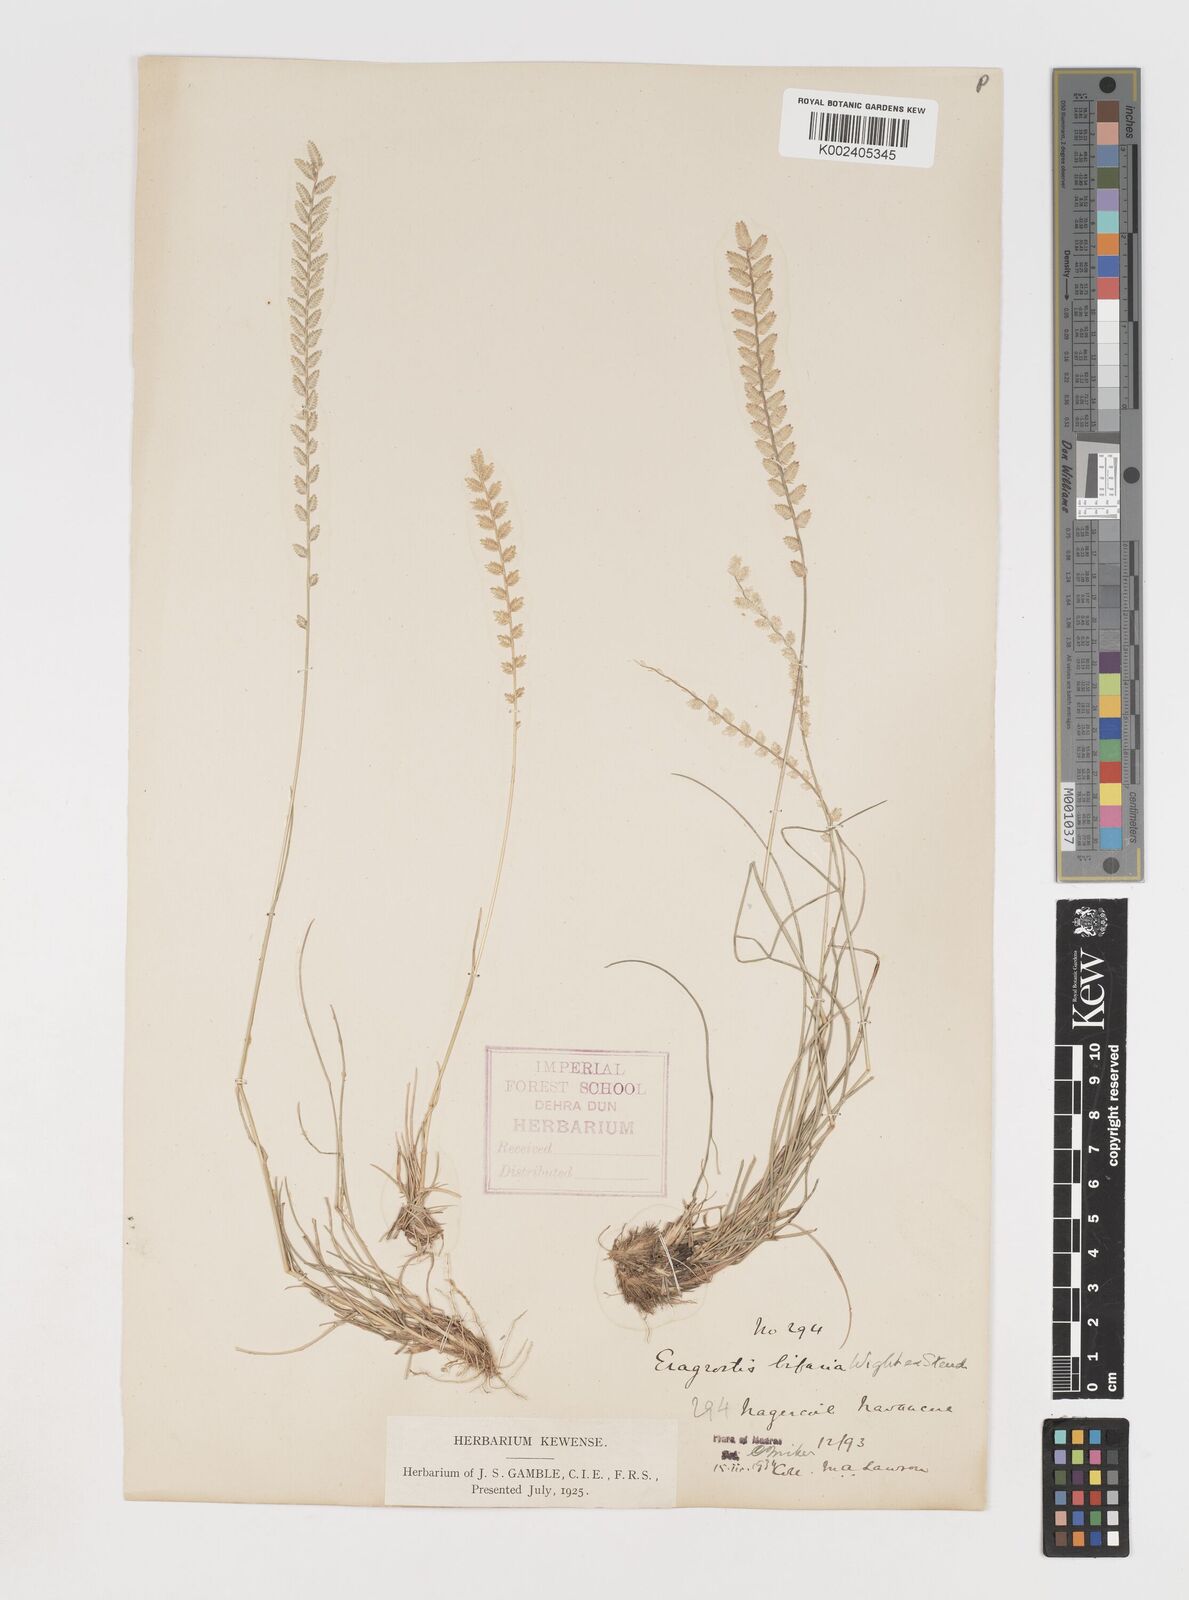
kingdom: Plantae
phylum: Tracheophyta
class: Liliopsida
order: Poales
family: Poaceae
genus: Eragrostiella
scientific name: Eragrostiella bifaria
